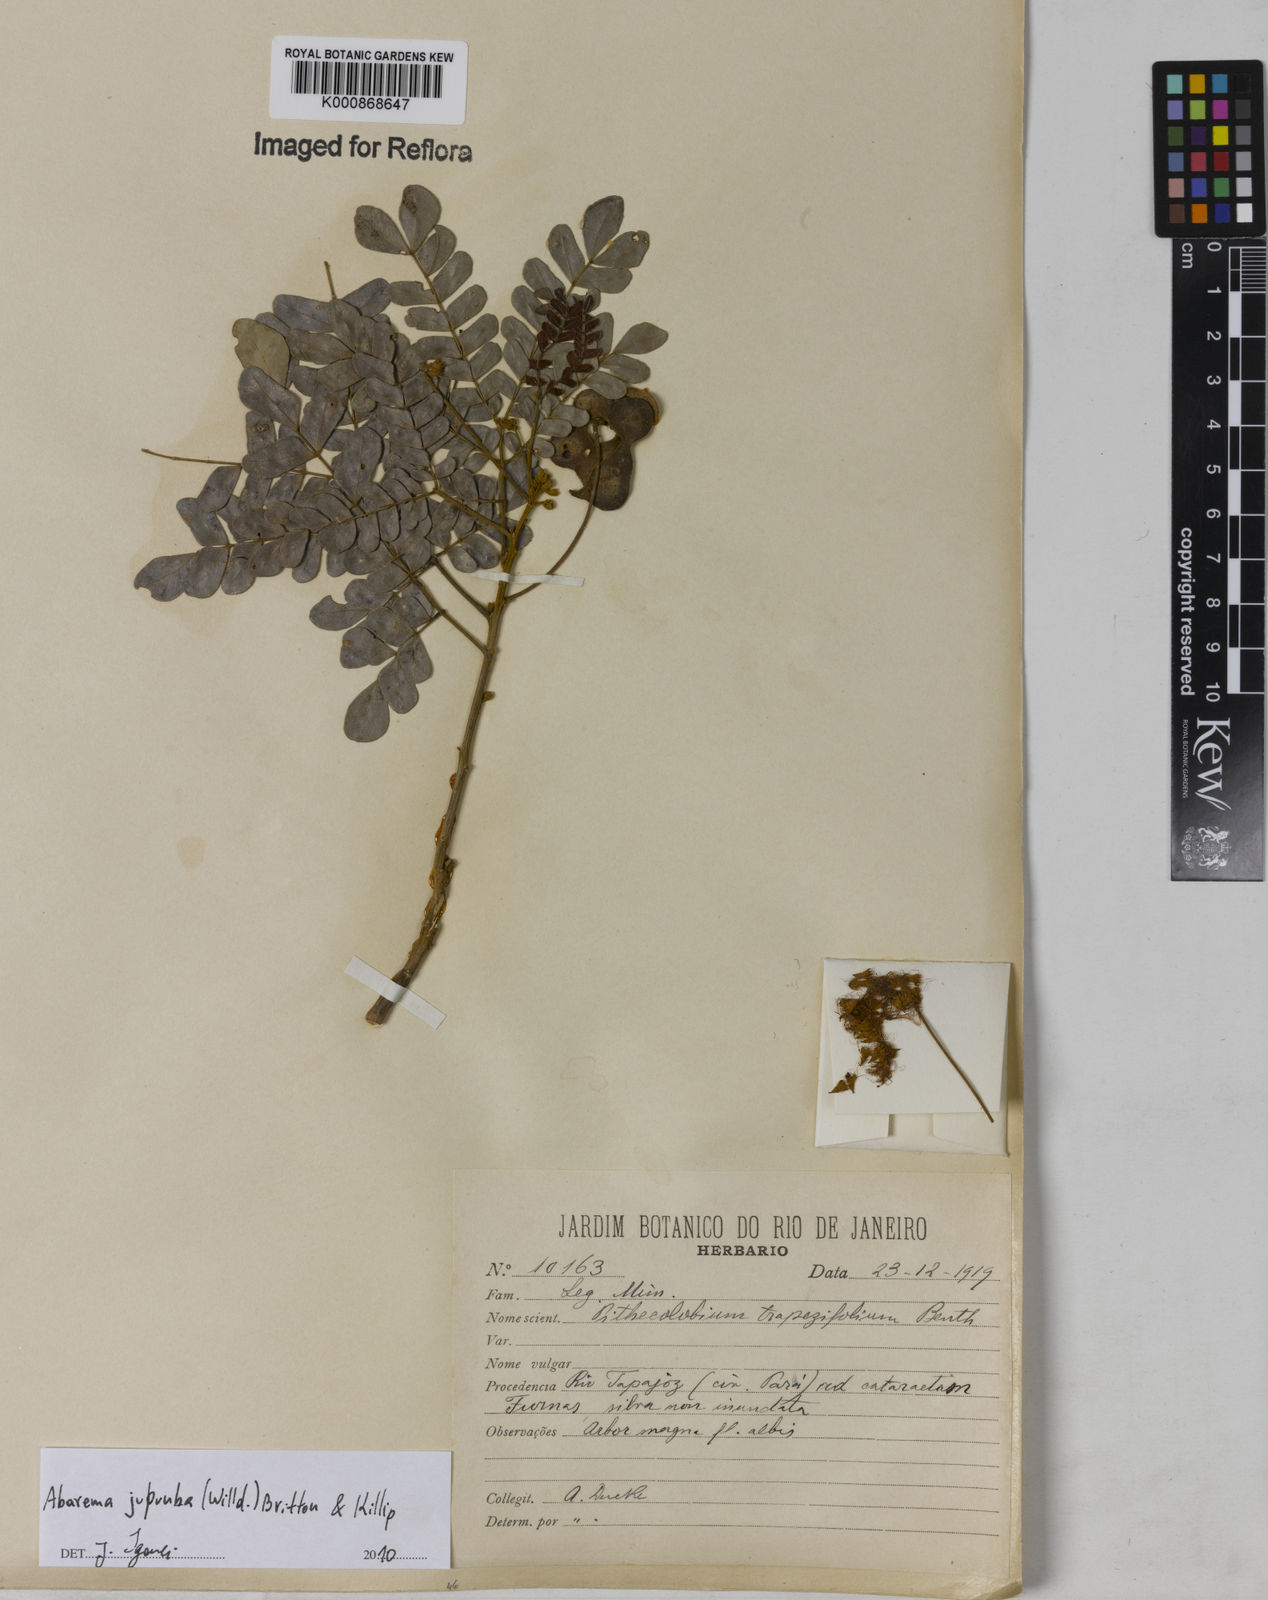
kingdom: Plantae
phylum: Tracheophyta
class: Magnoliopsida
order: Fabales
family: Fabaceae
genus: Jupunba
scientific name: Jupunba trapezifolia
